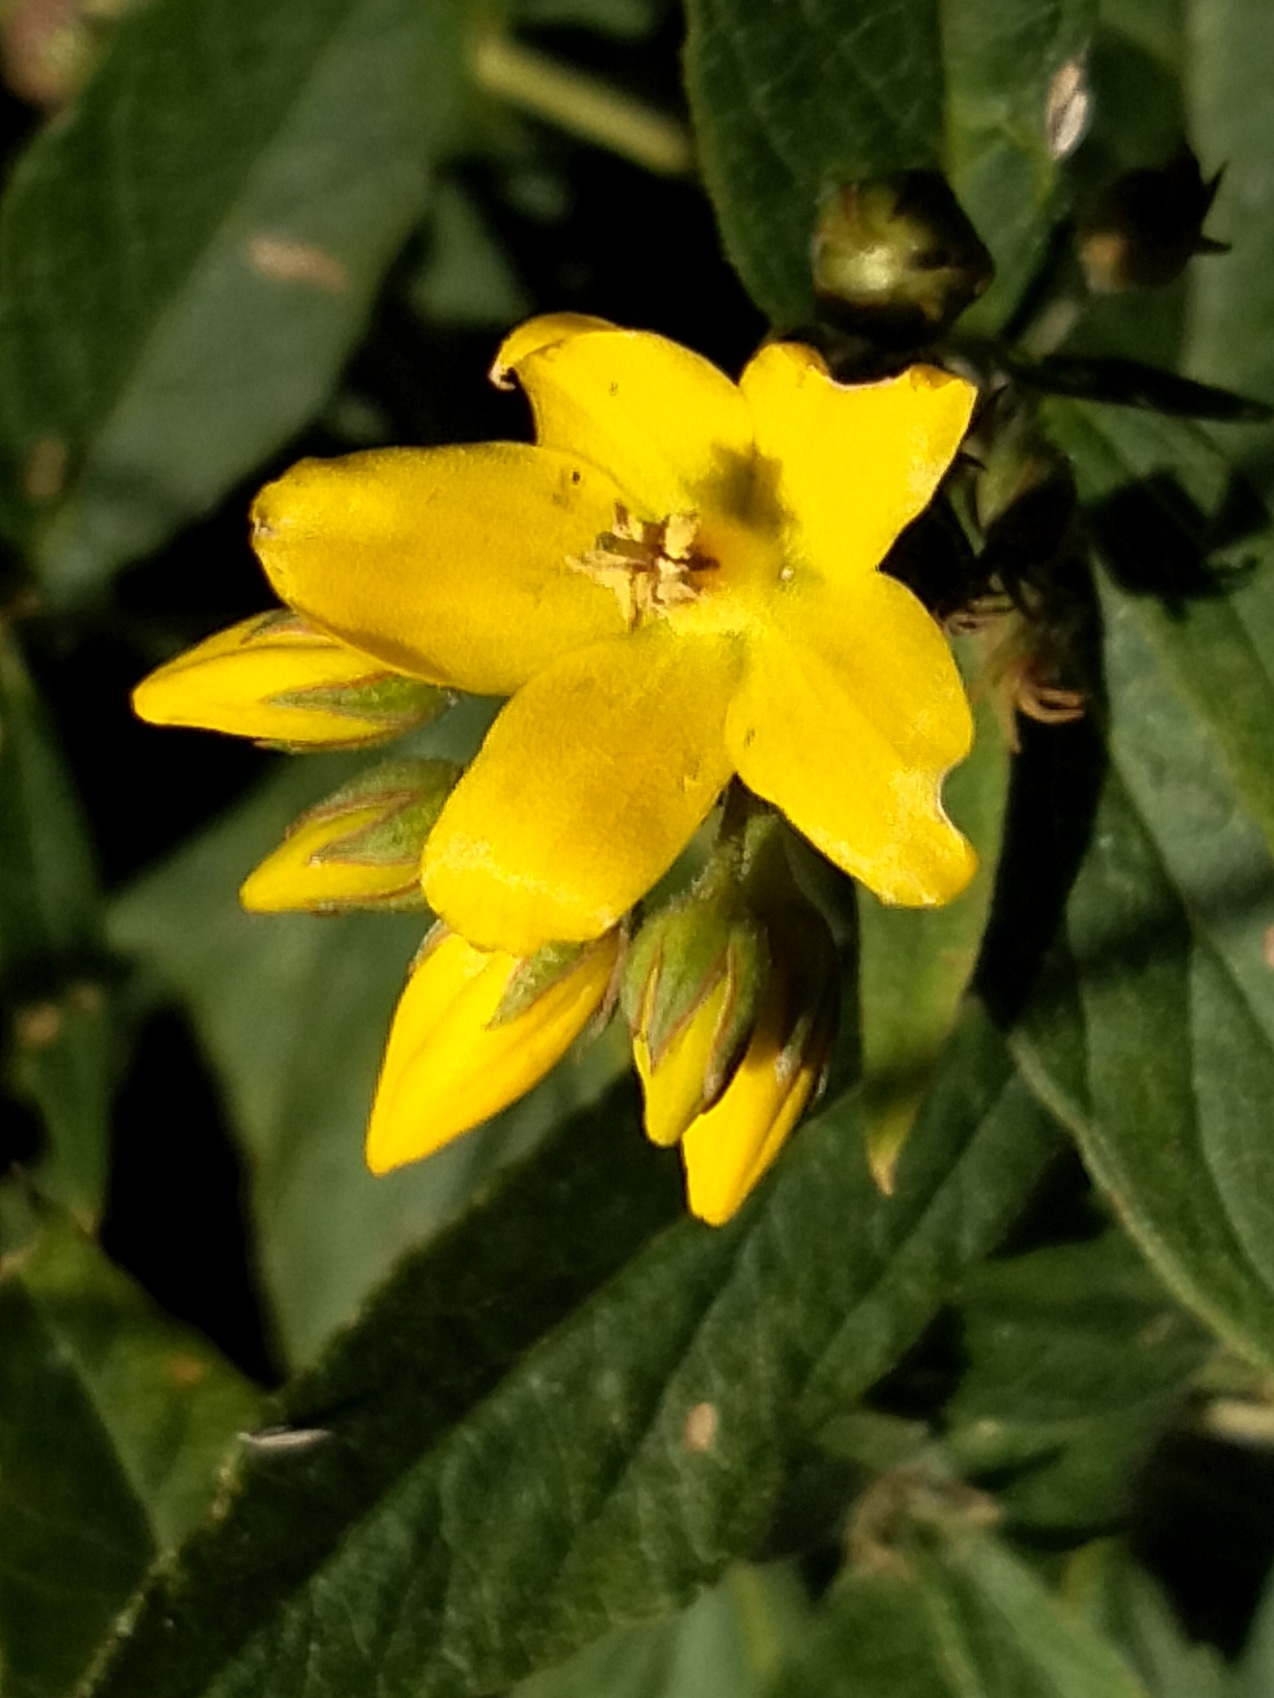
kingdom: Plantae
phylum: Tracheophyta
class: Magnoliopsida
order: Ericales
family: Primulaceae
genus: Lysimachia
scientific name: Lysimachia vulgaris
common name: Almindelig fredløs
